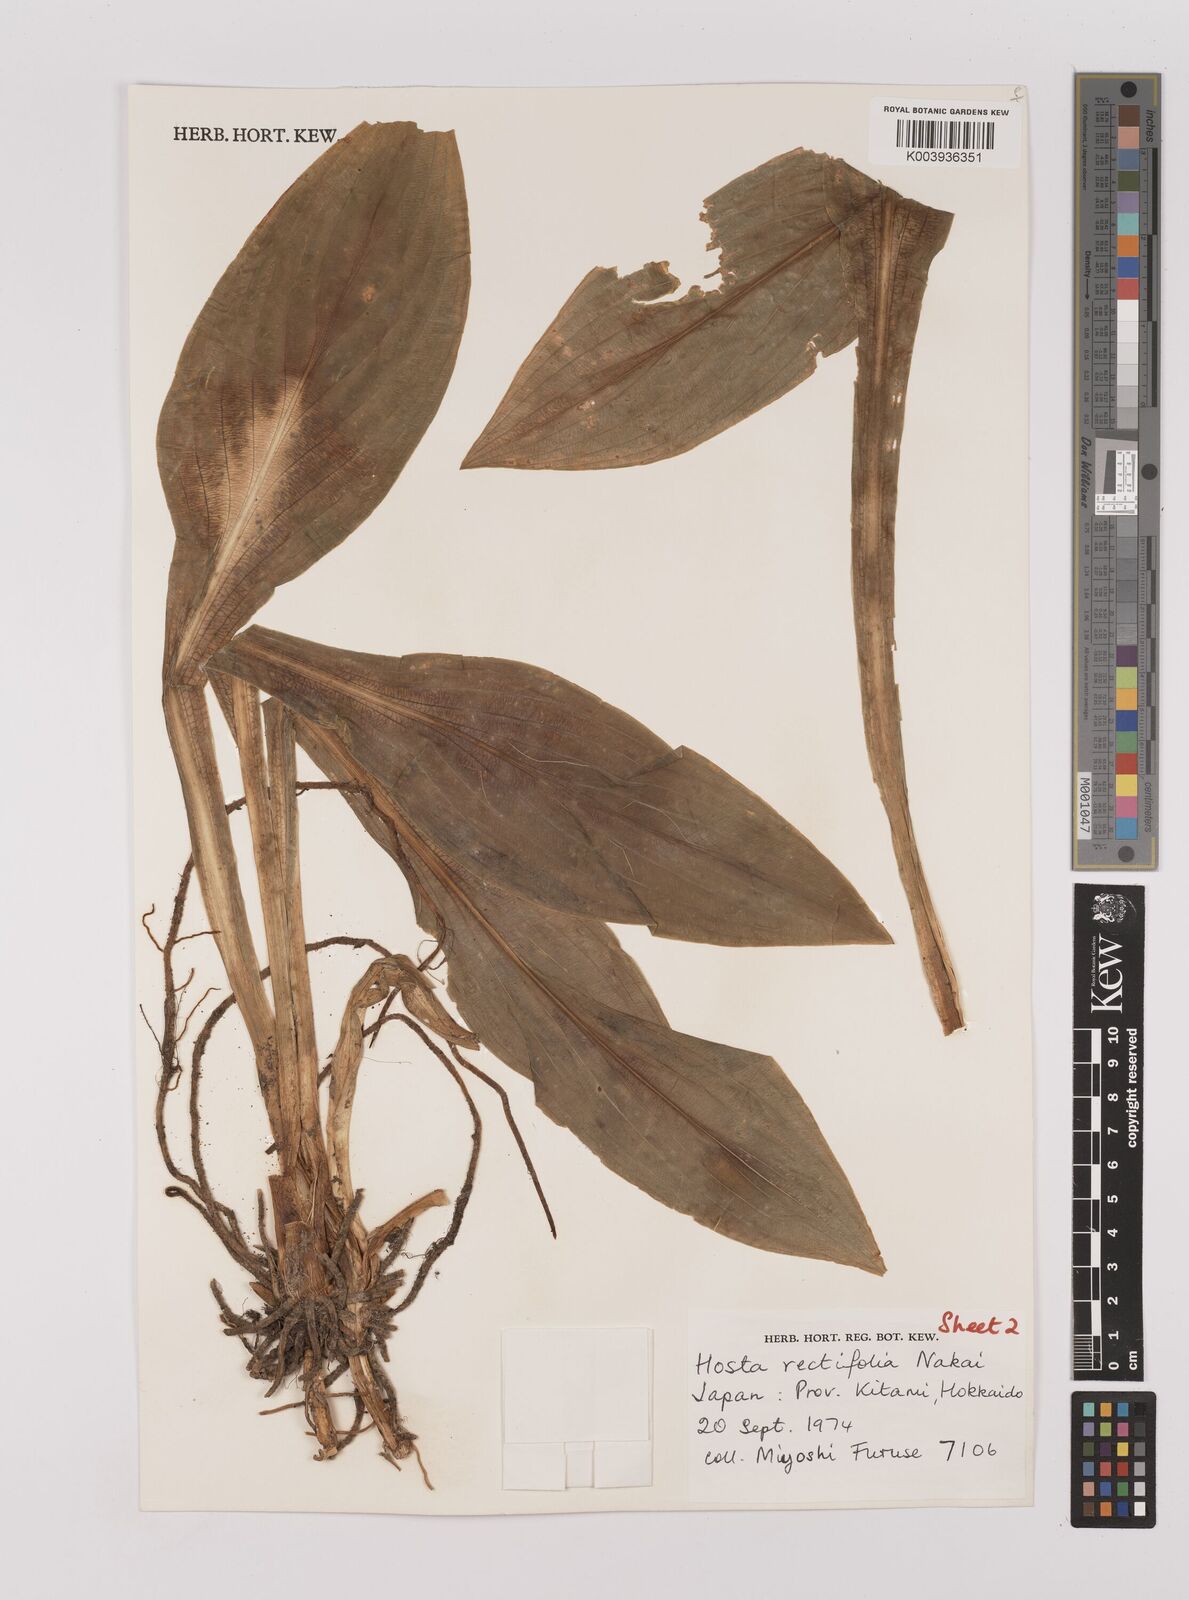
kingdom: Plantae
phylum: Tracheophyta
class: Liliopsida
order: Asparagales
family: Asparagaceae
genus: Hosta
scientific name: Hosta sieboldii
